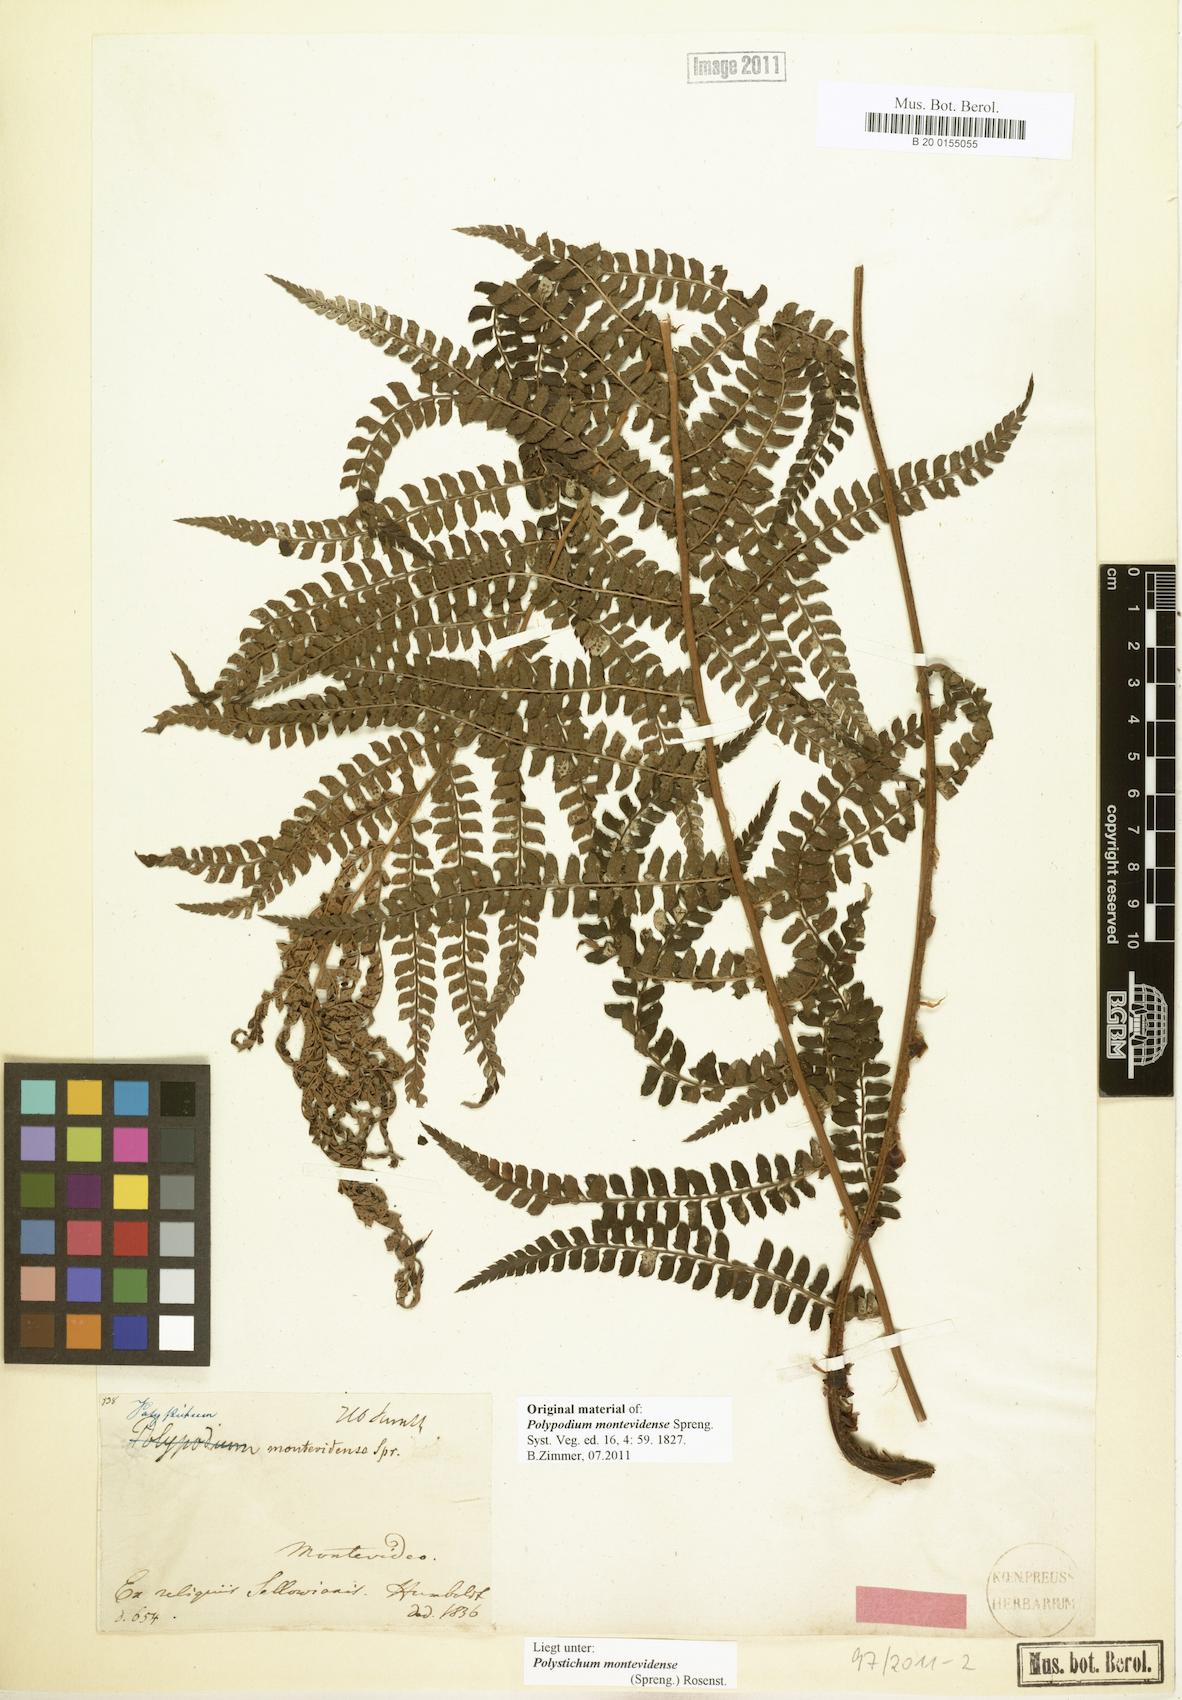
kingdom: Plantae
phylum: Tracheophyta
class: Polypodiopsida
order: Polypodiales
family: Dryopteridaceae
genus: Polystichum
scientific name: Polystichum montevidense
